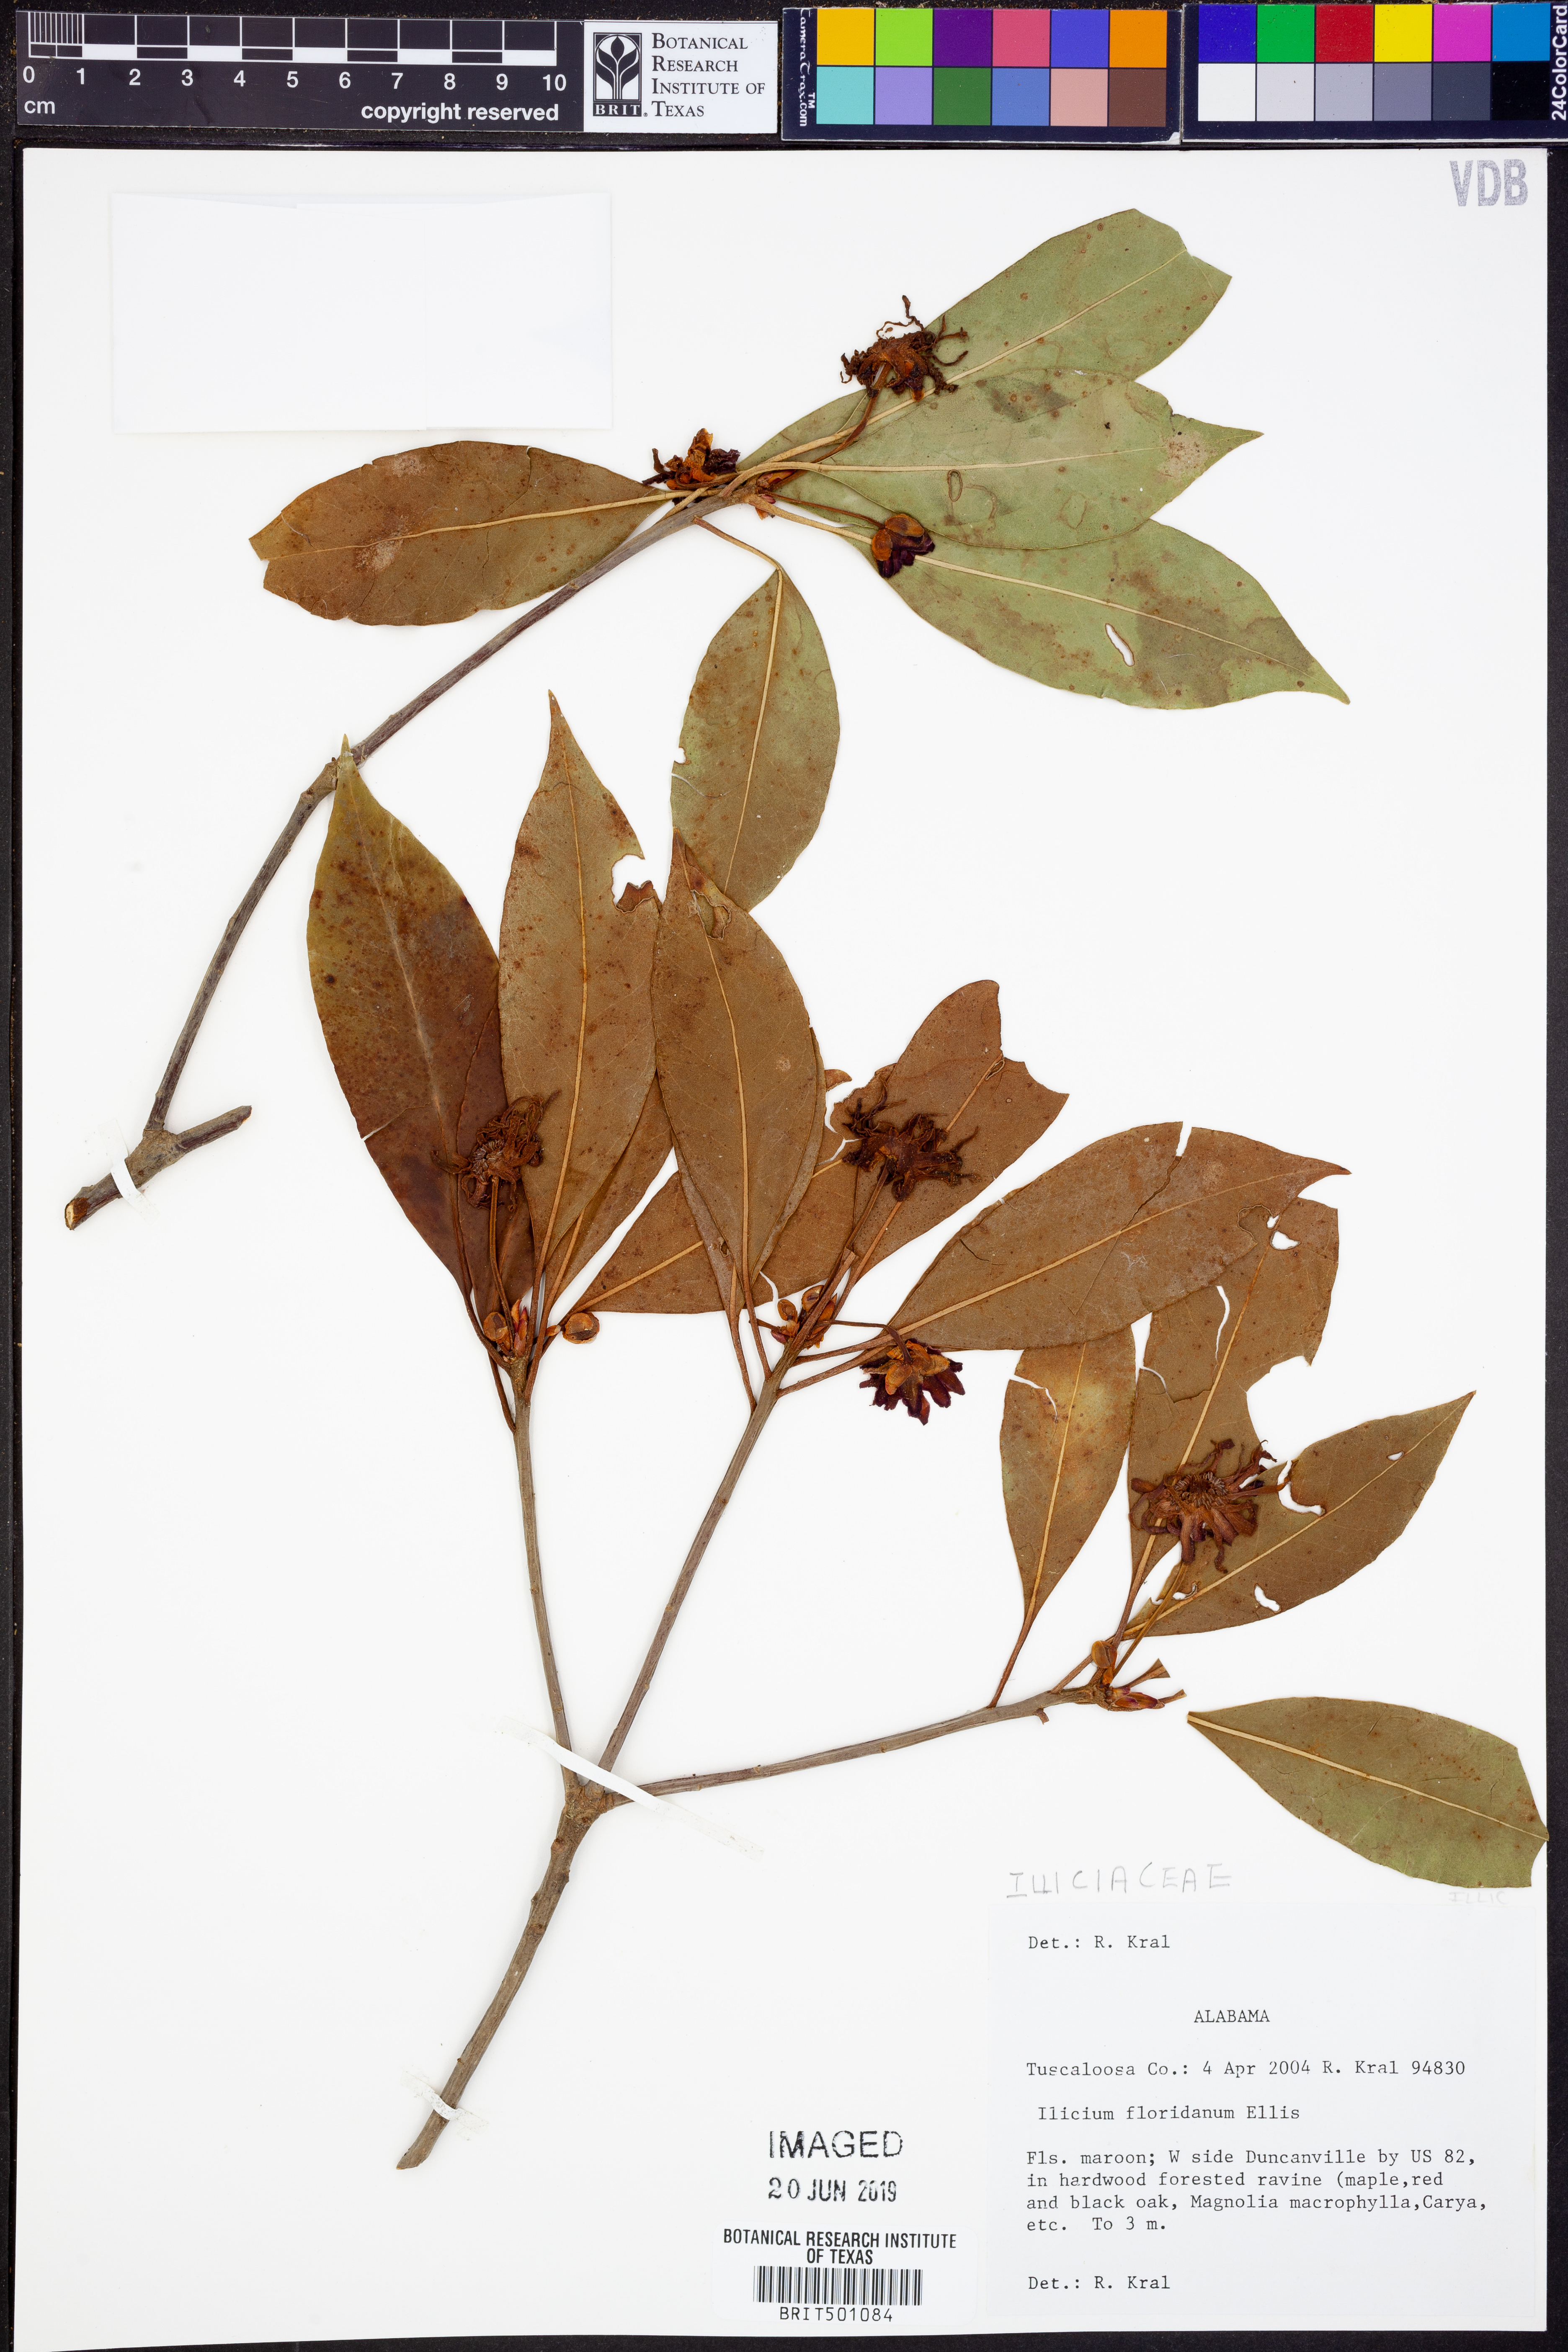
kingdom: Plantae
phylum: Tracheophyta
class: Magnoliopsida
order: Austrobaileyales
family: Schisandraceae
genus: Illicium
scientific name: Illicium floridanum
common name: Florida anisetree
